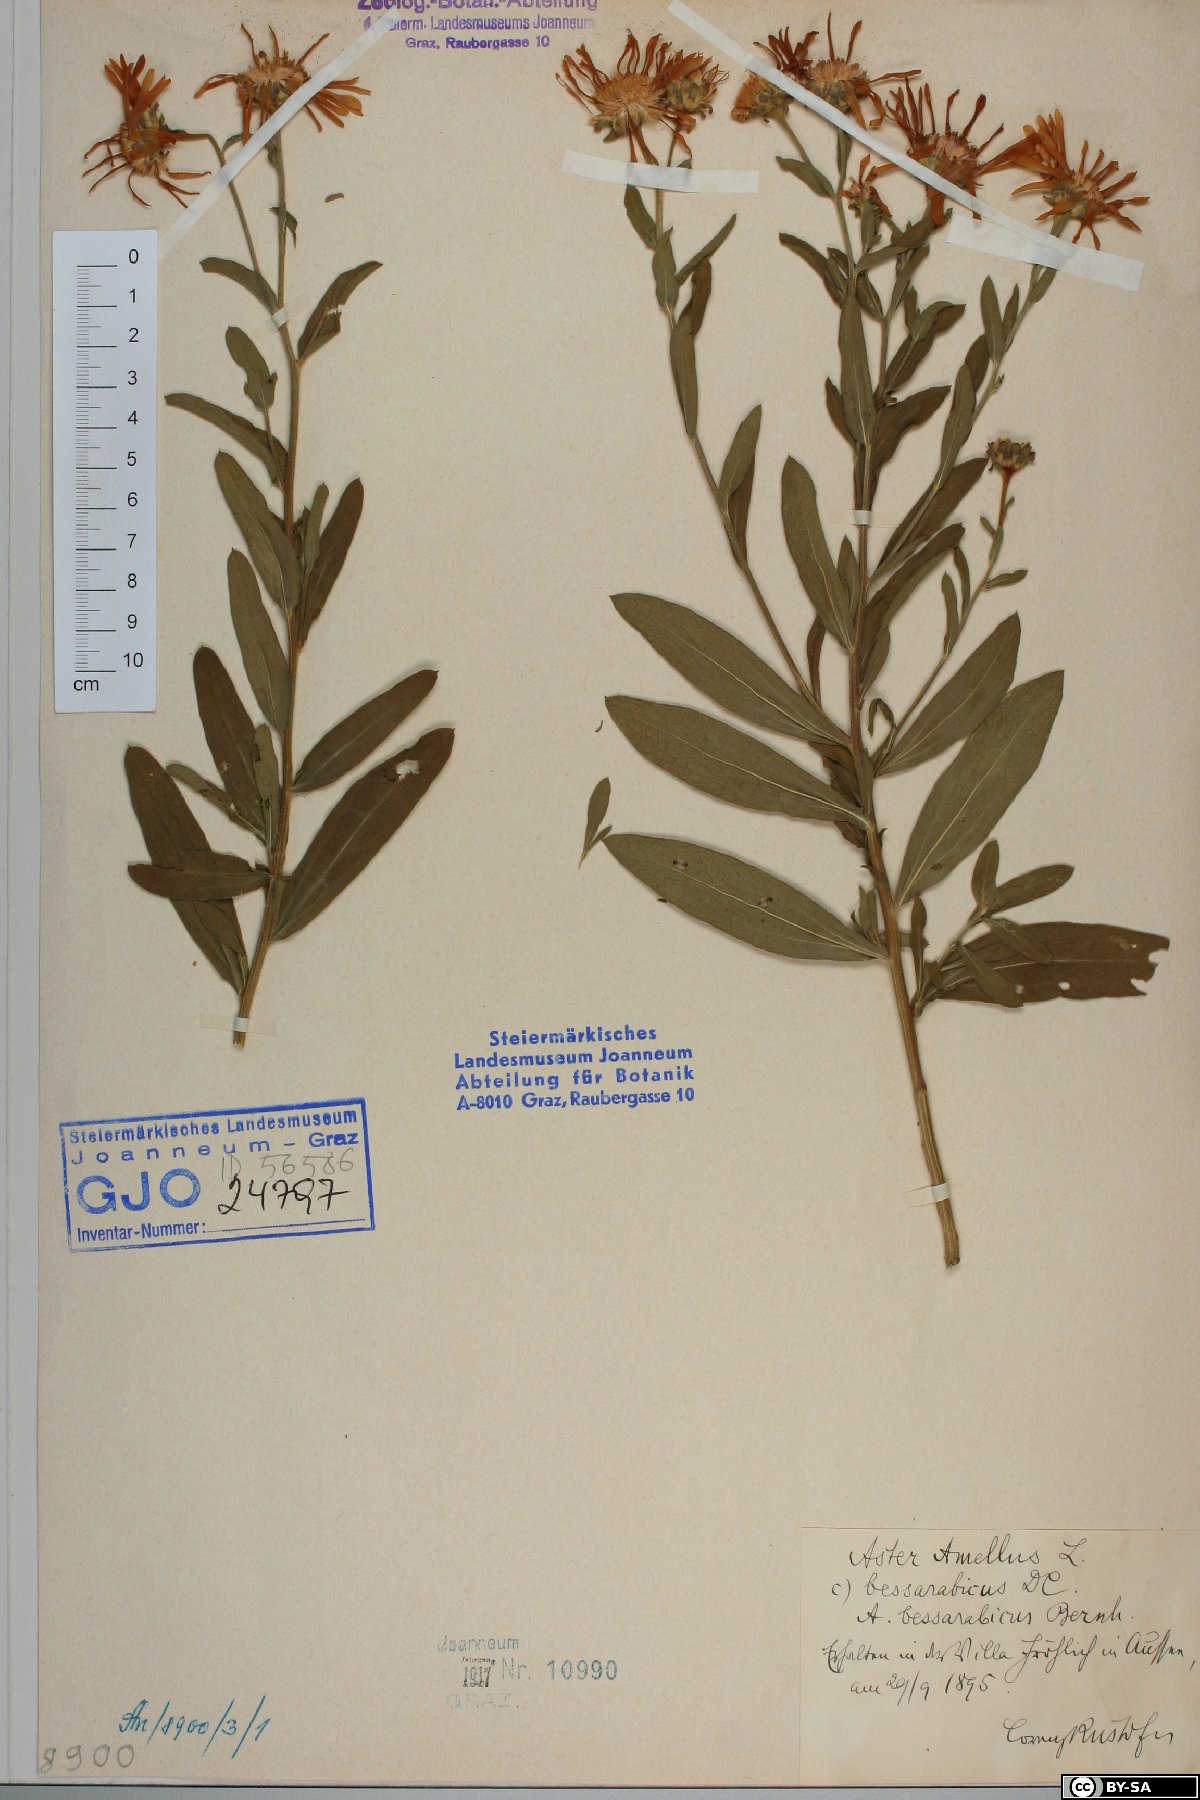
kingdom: Plantae
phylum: Tracheophyta
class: Magnoliopsida
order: Asterales
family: Asteraceae
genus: Aster
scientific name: Aster amellus
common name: European michaelmas daisy
